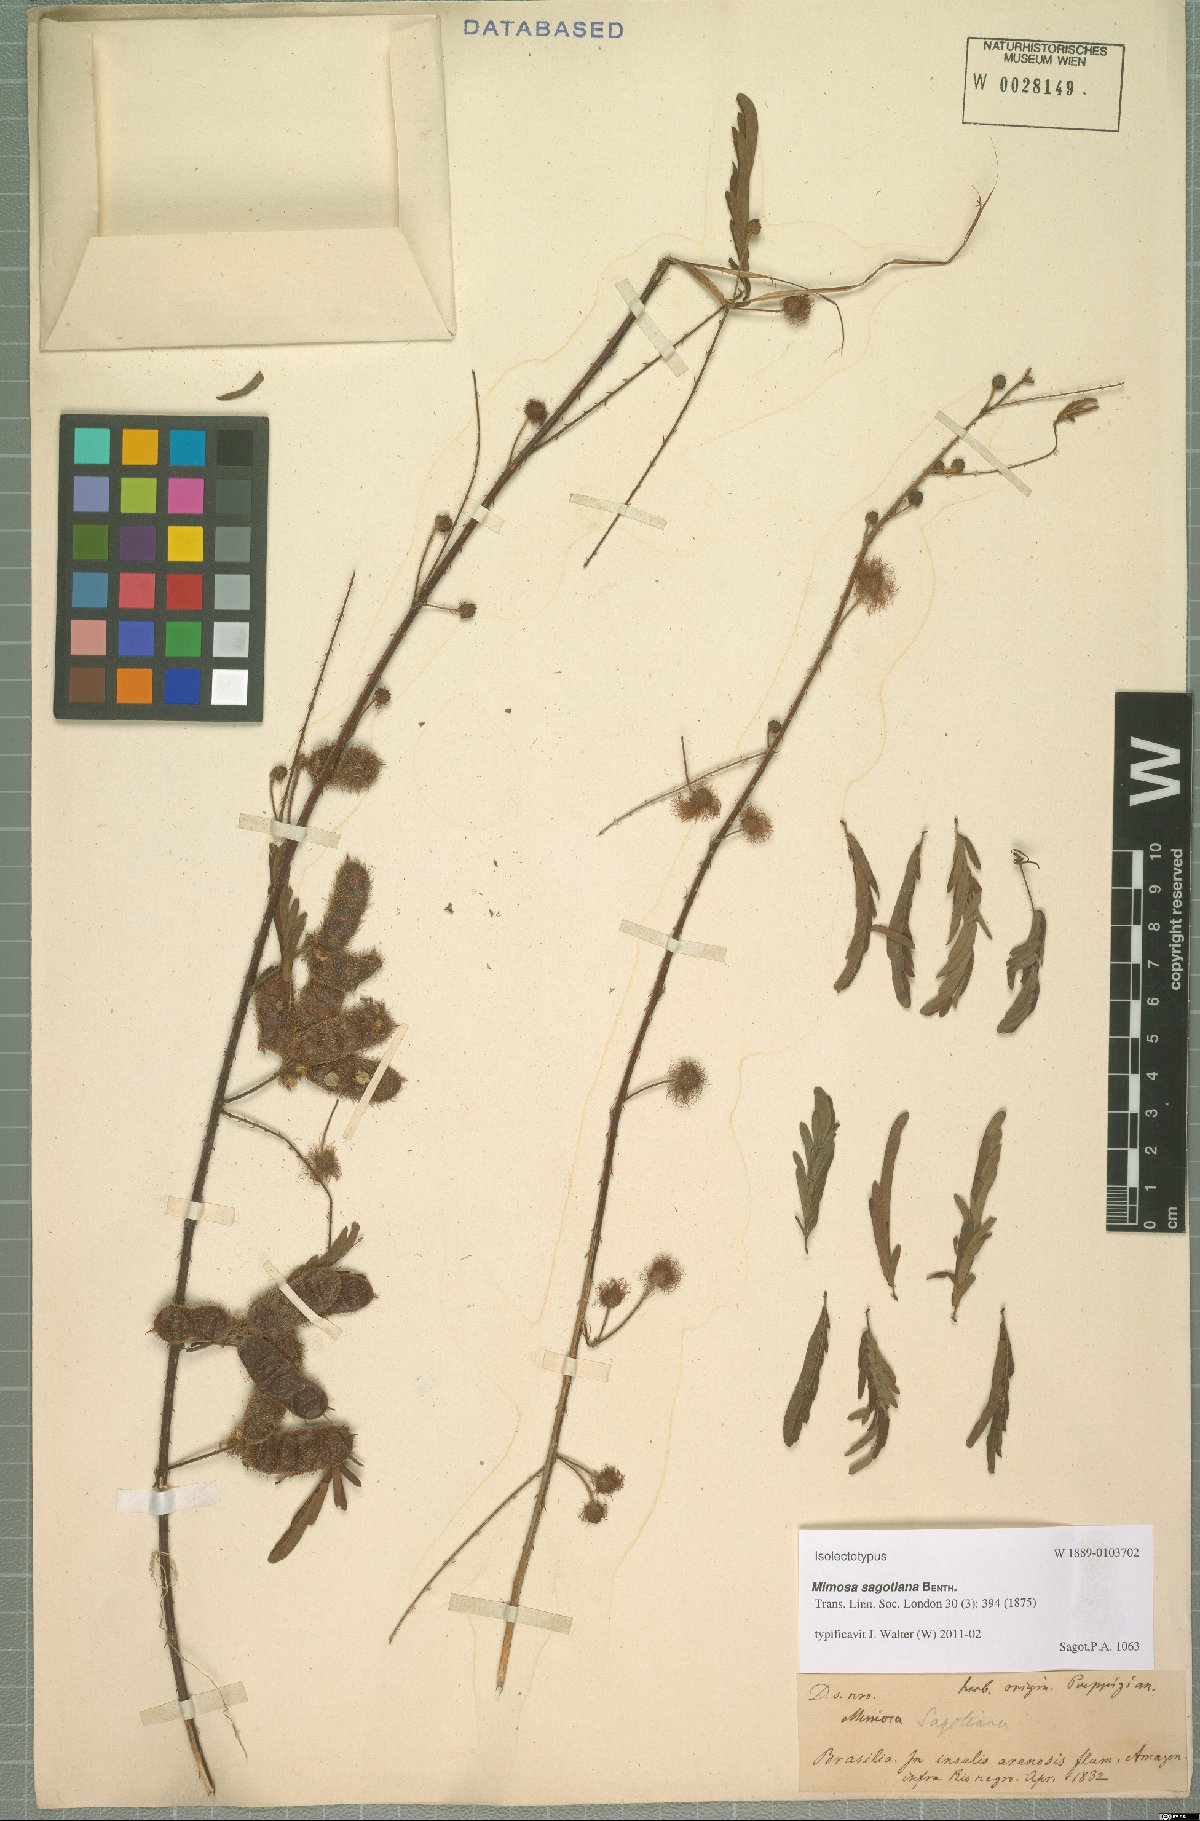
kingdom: Plantae
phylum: Tracheophyta
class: Magnoliopsida
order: Fabales
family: Fabaceae
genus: Mimosa
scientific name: Mimosa schrankioides
